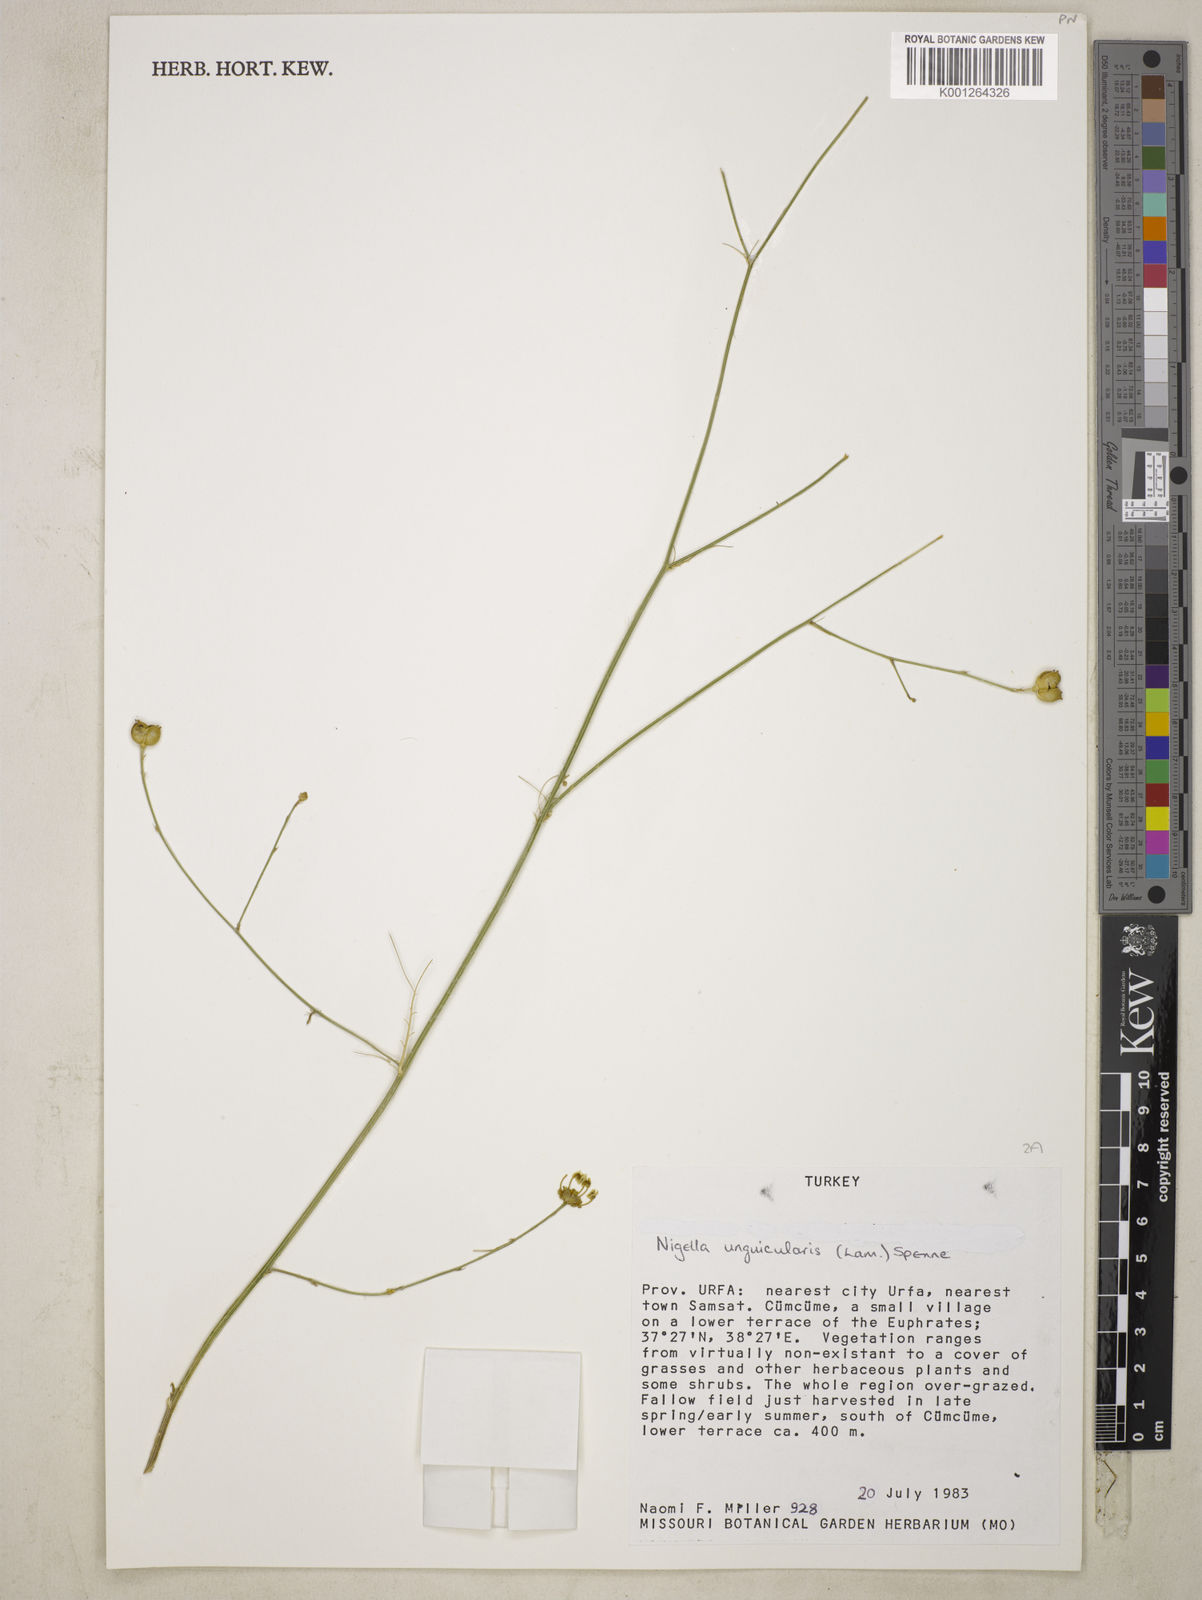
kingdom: Plantae
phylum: Tracheophyta
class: Magnoliopsida
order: Ranunculales
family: Ranunculaceae
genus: Garidella
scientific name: Garidella unguicularis
